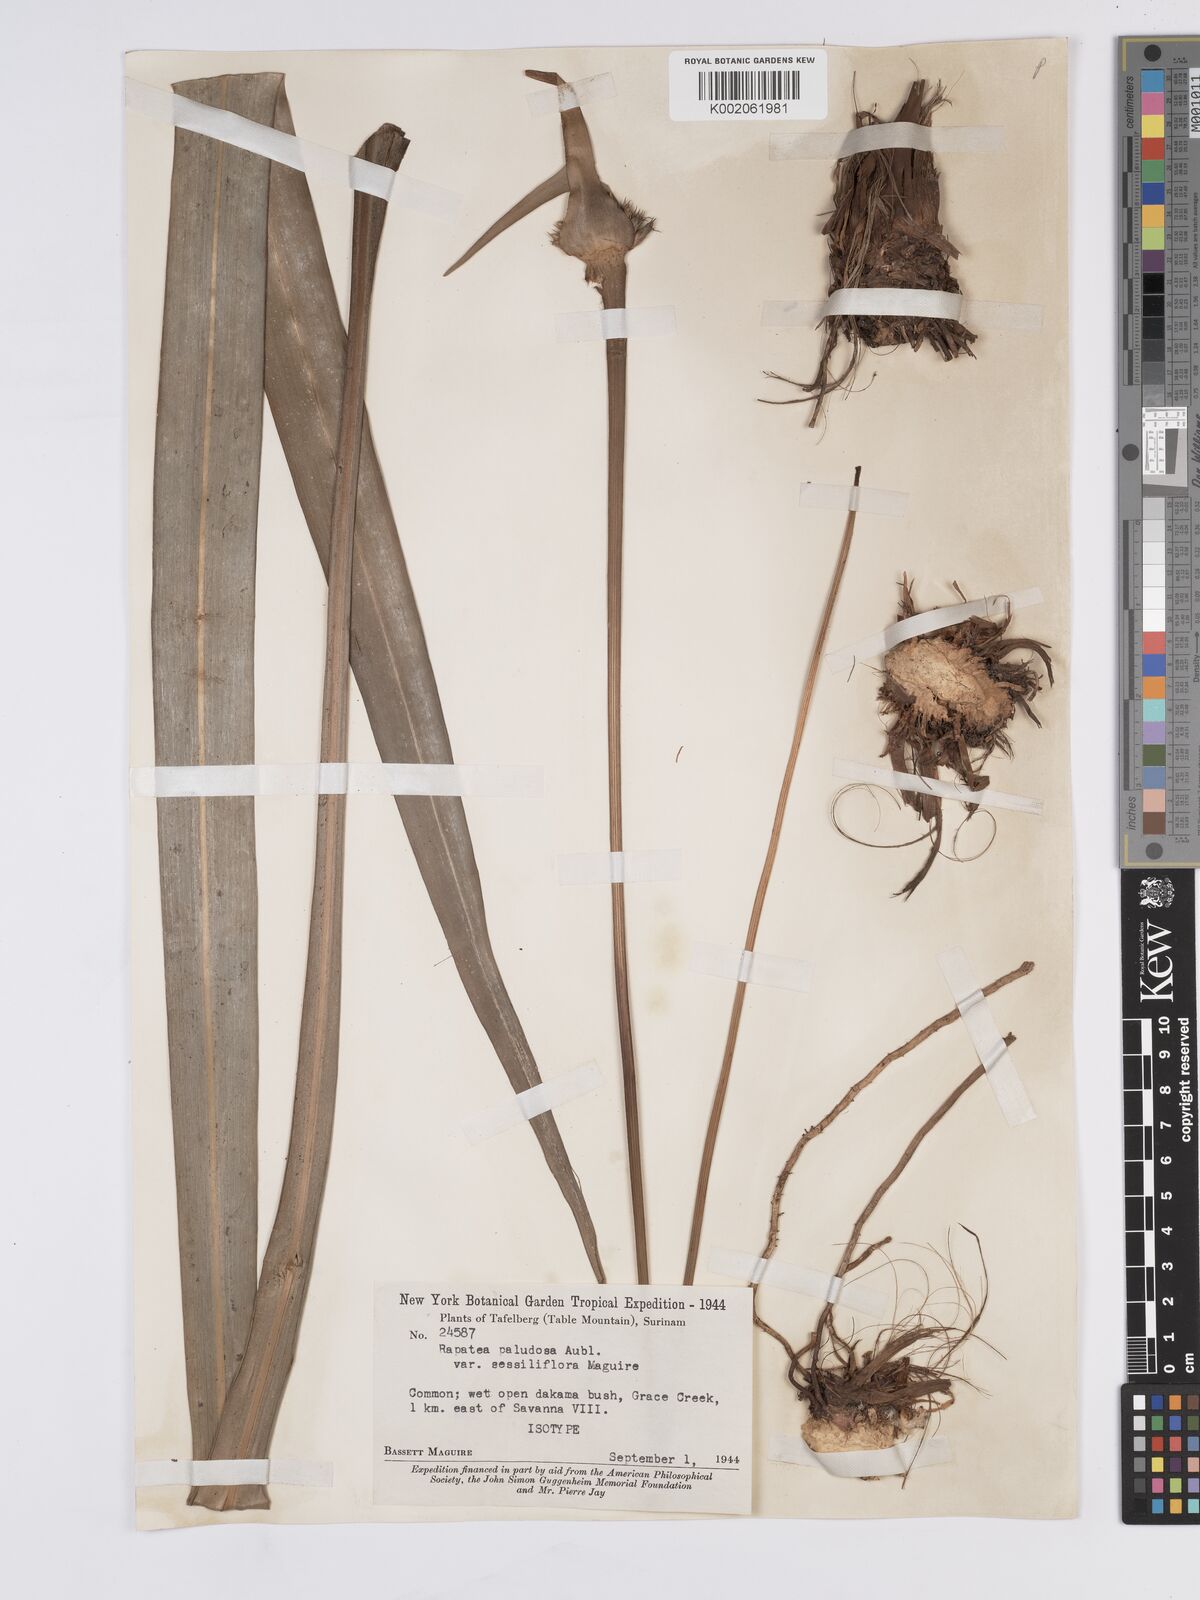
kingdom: Plantae
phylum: Tracheophyta
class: Liliopsida
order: Poales
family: Rapateaceae
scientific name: Rapateaceae
